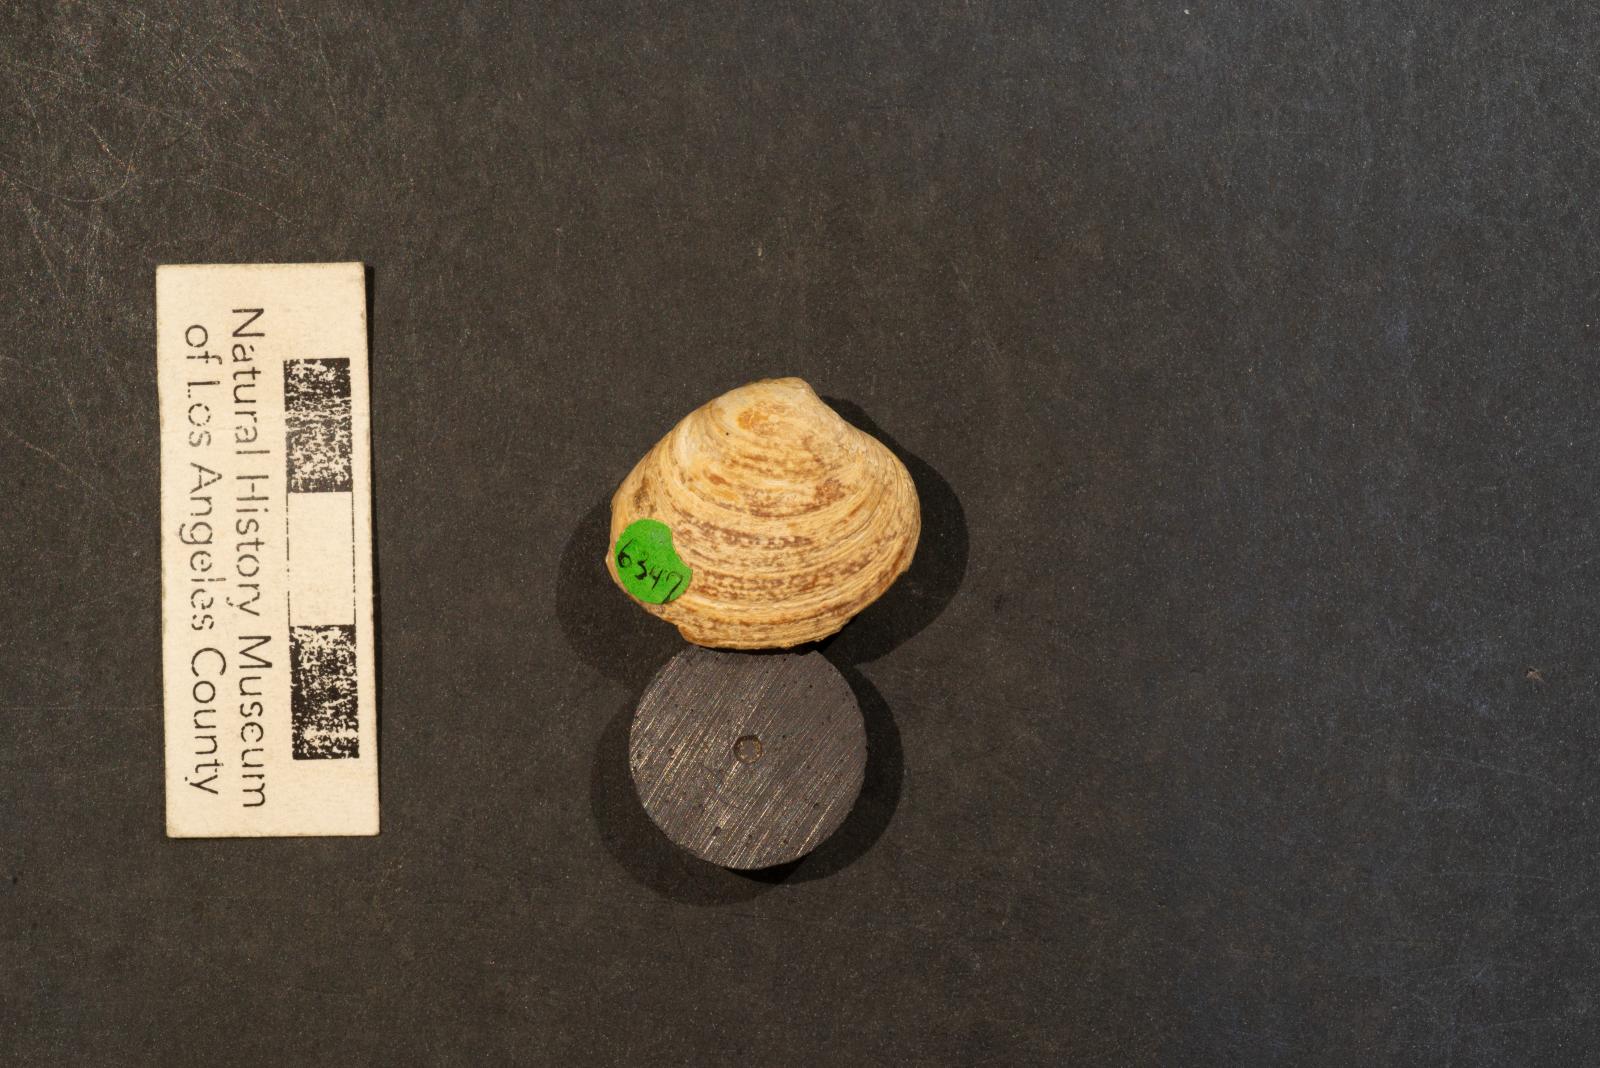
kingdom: Animalia
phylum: Mollusca
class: Bivalvia
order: Venerida
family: Veneridae
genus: Callistalox
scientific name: Callistalox Meretrix fragilis
